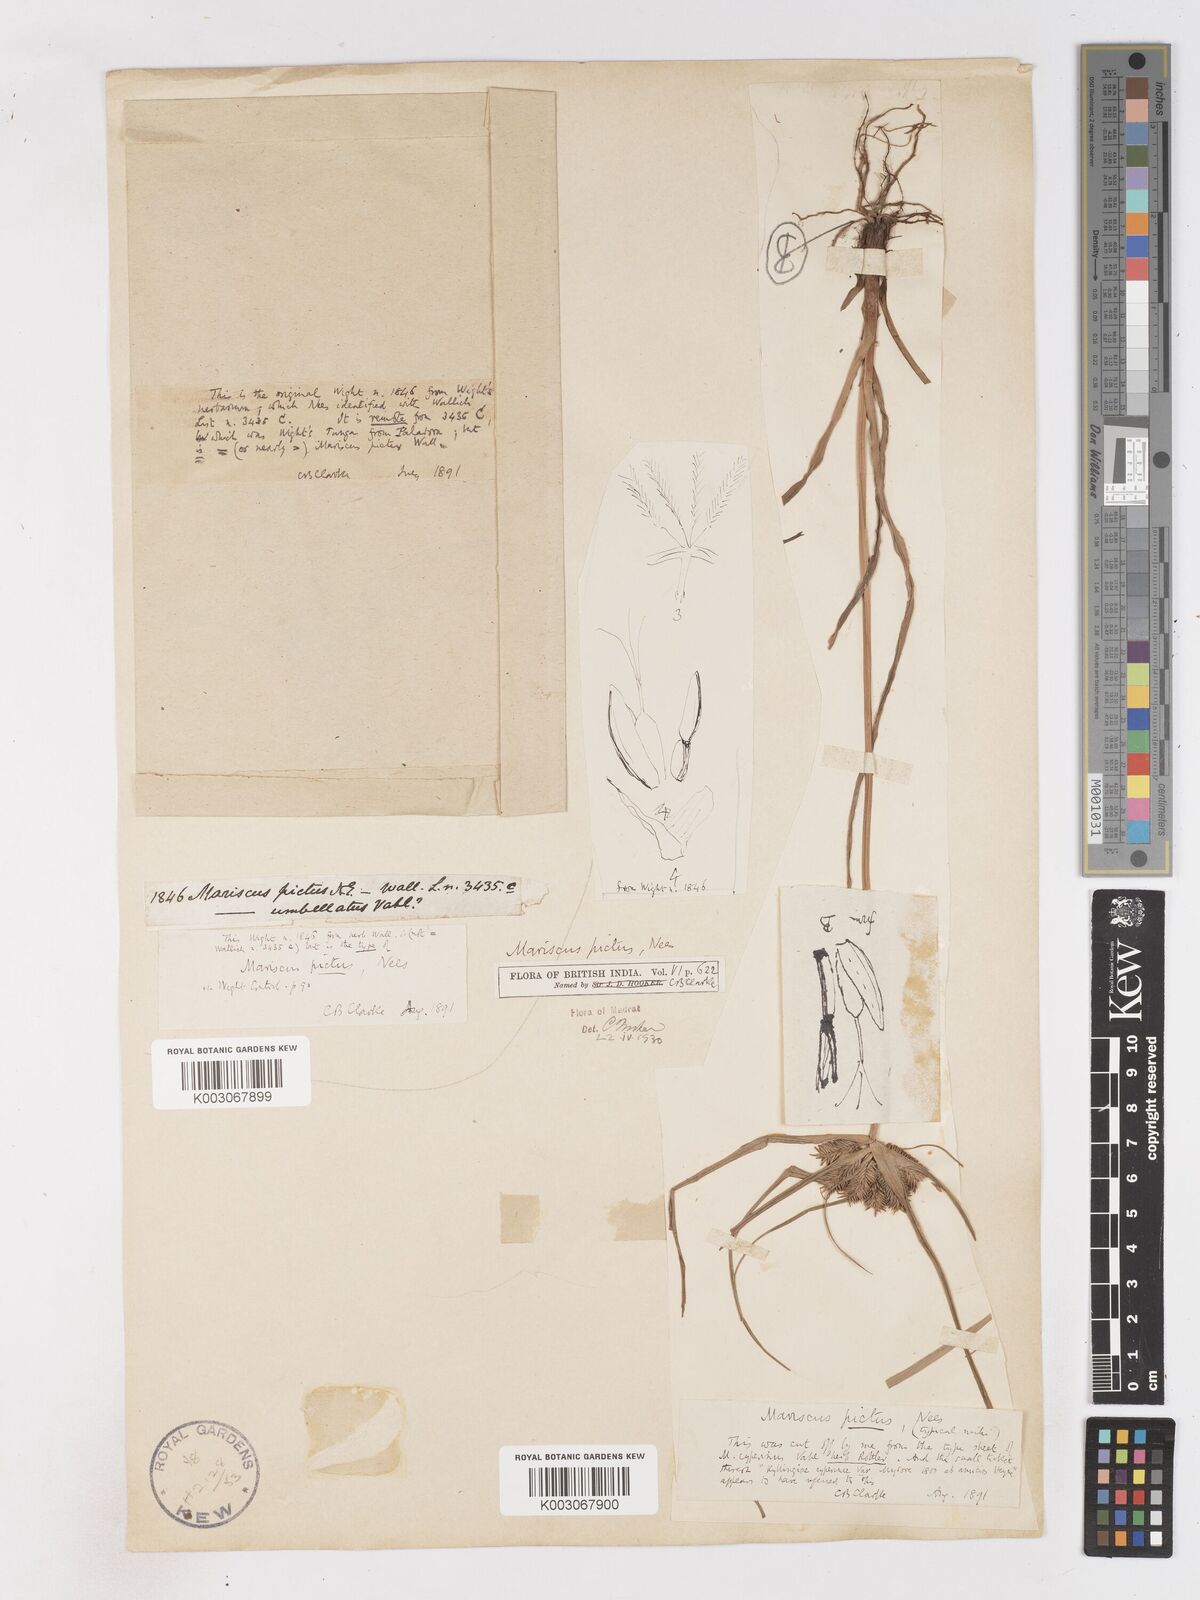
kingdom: Plantae
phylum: Tracheophyta
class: Liliopsida
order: Poales
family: Cyperaceae
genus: Cyperus
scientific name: Cyperus cyperinus
